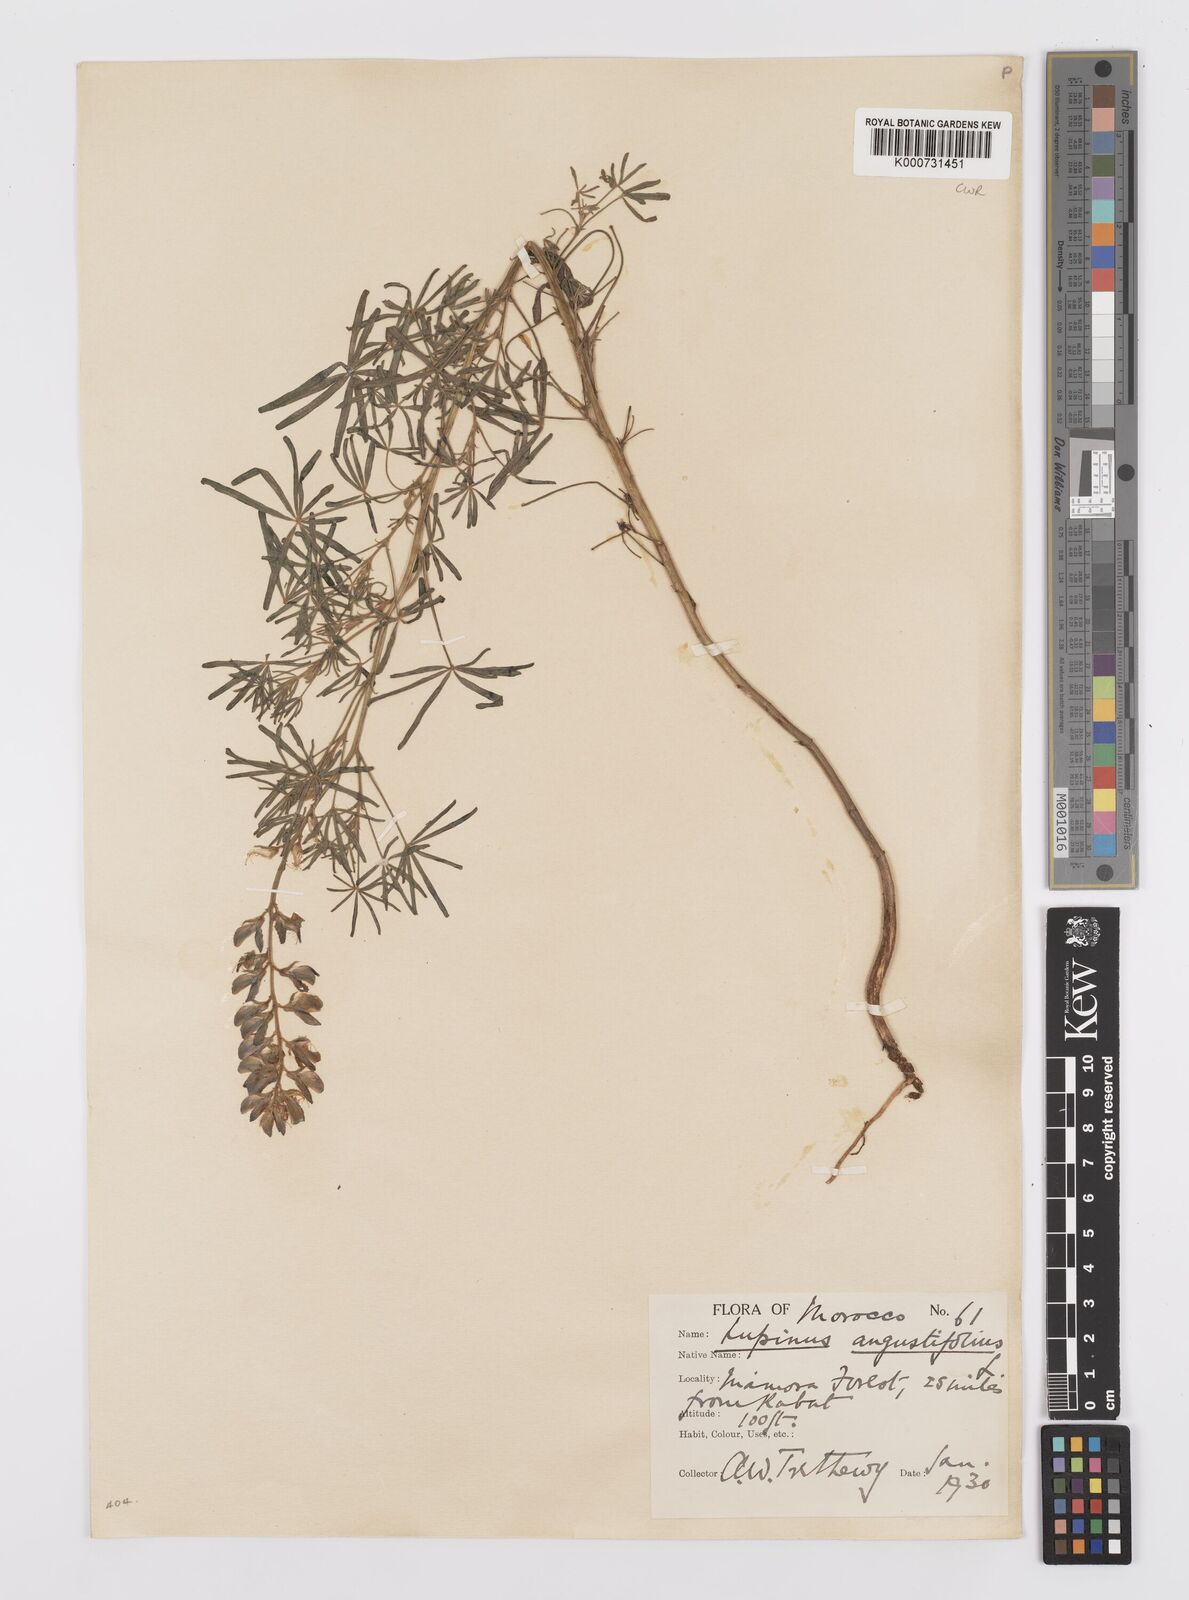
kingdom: Plantae
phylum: Tracheophyta
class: Magnoliopsida
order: Fabales
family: Fabaceae
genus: Lupinus
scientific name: Lupinus angustifolius
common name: Narrow-leaved lupin
